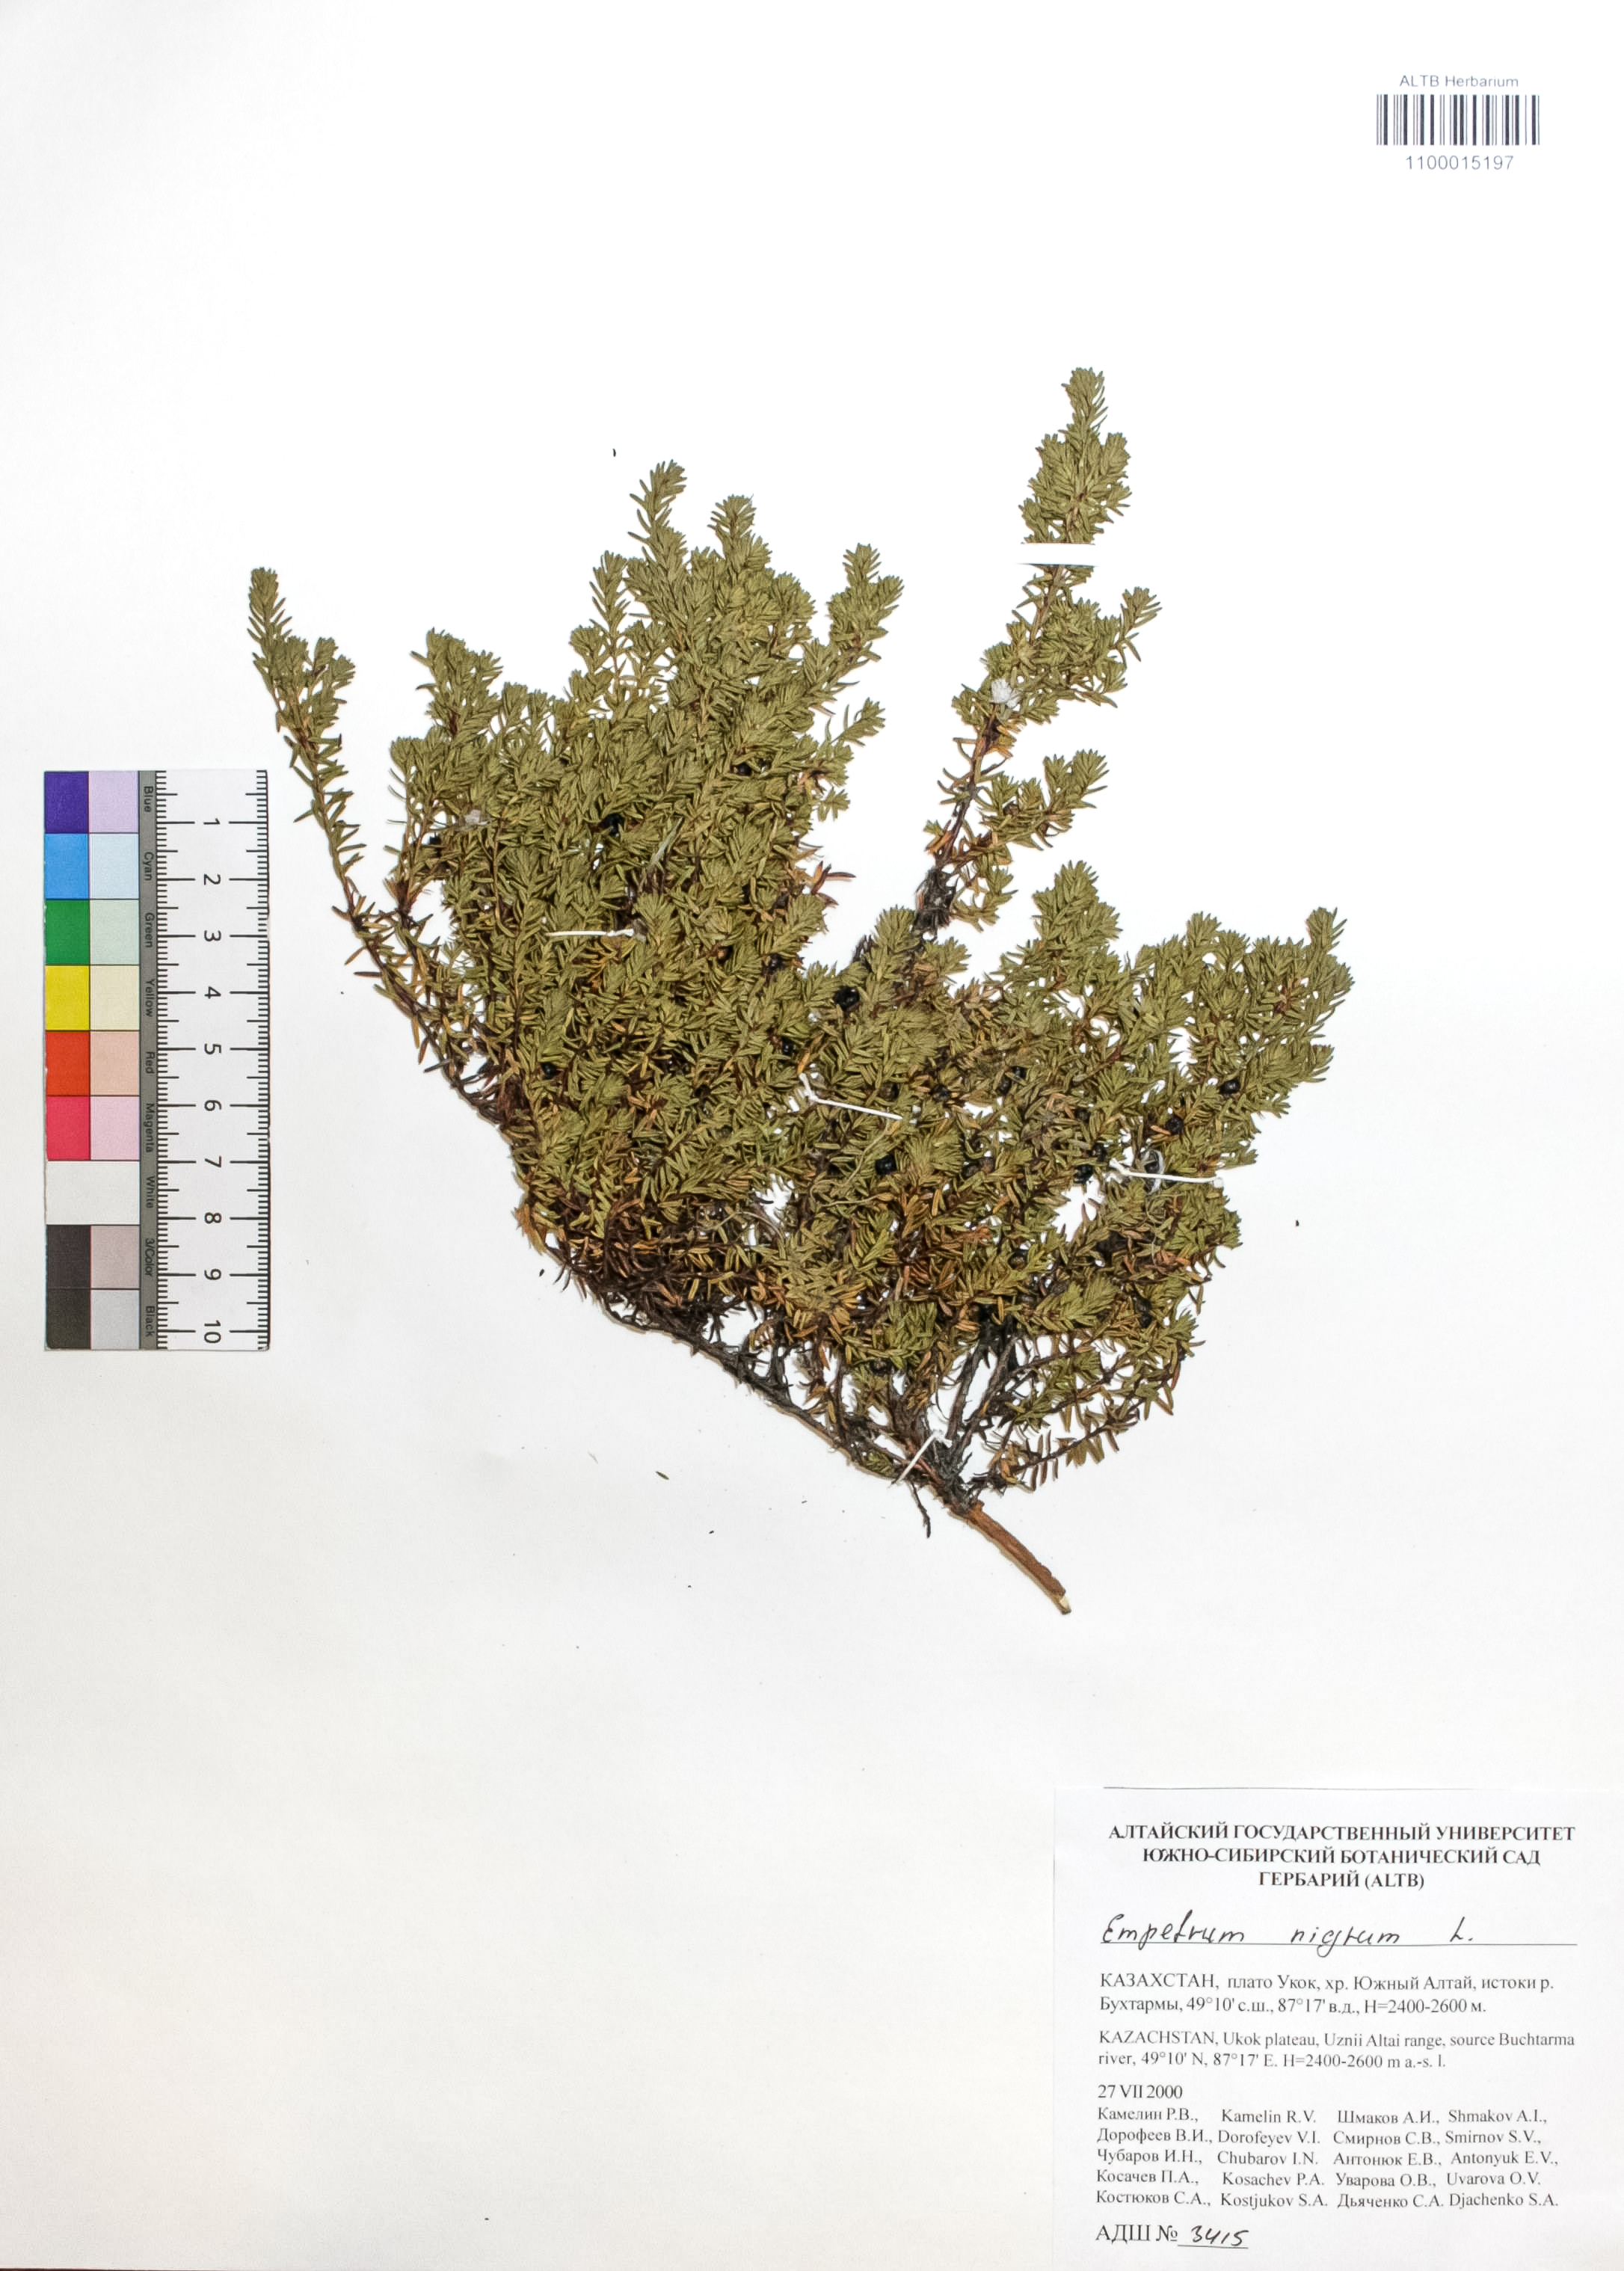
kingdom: Plantae
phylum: Tracheophyta
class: Magnoliopsida
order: Ericales
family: Ericaceae
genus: Empetrum
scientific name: Empetrum nigrum
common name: Black crowberry
